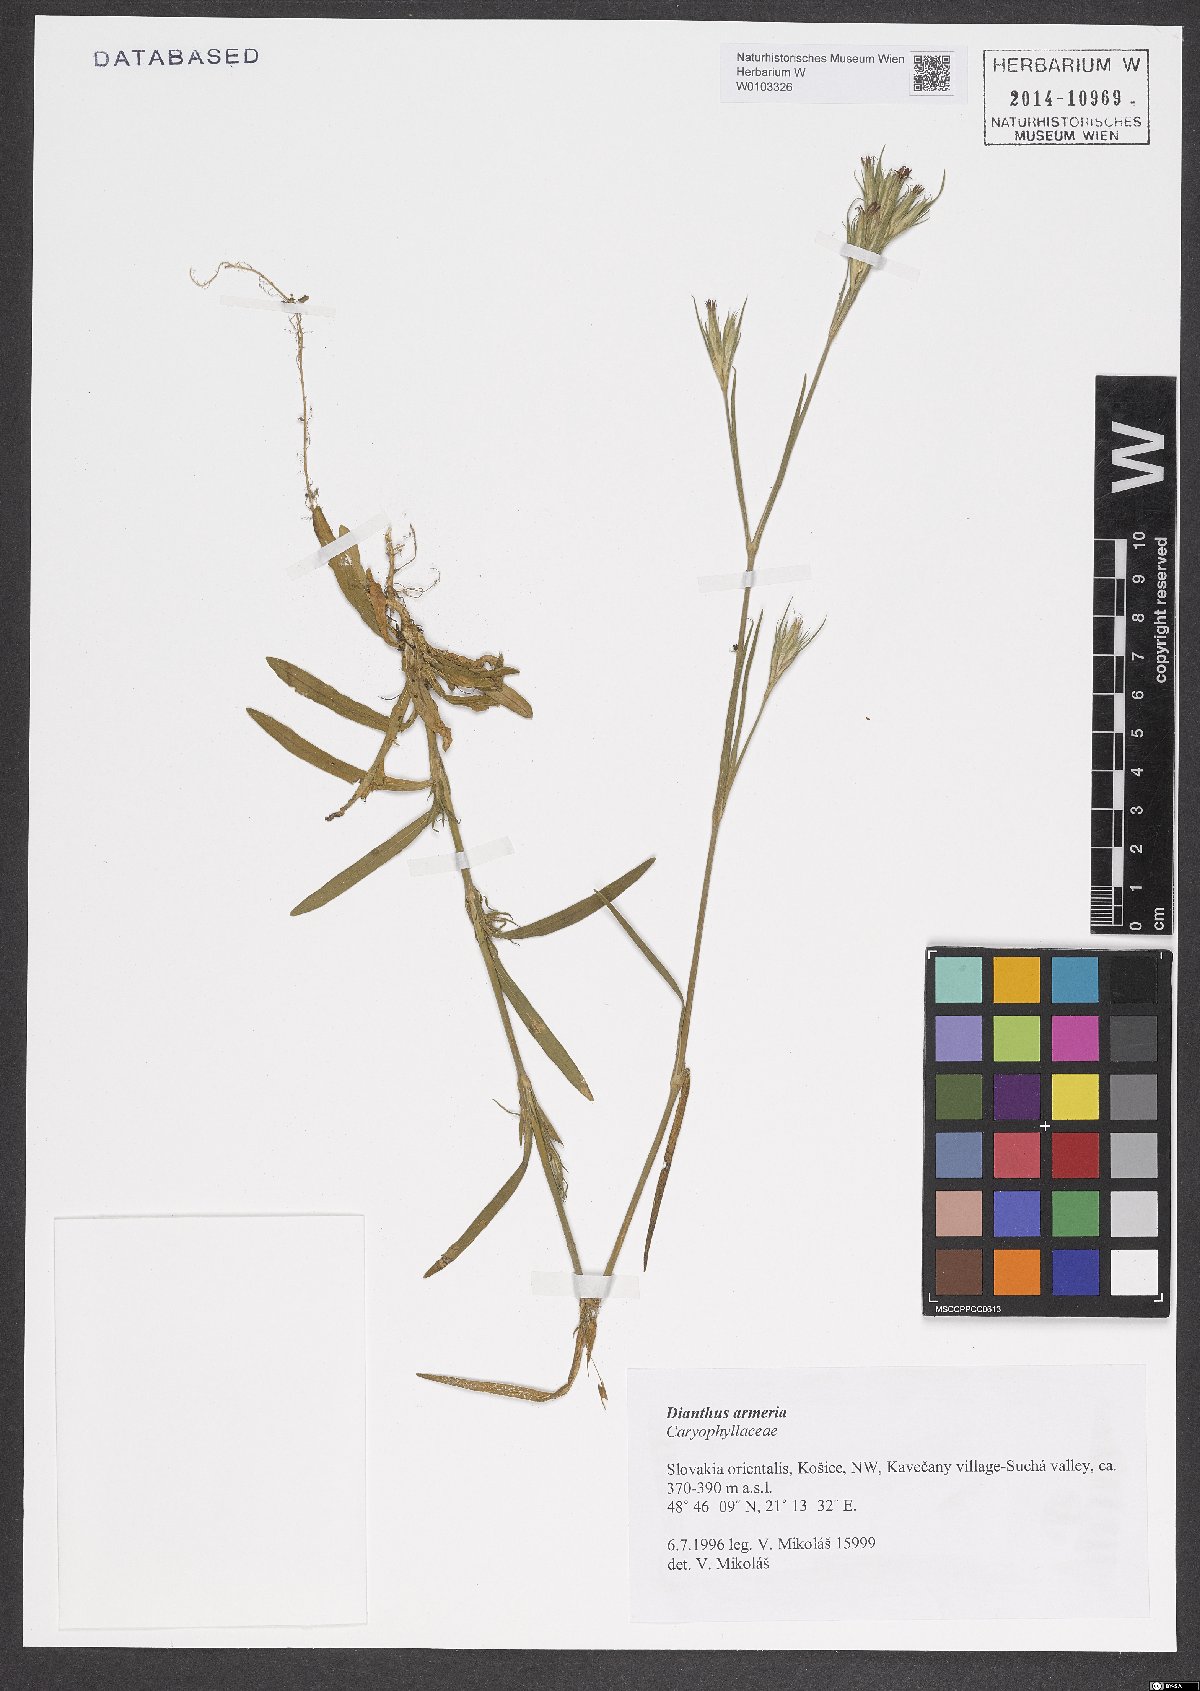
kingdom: Plantae
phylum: Tracheophyta
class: Magnoliopsida
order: Caryophyllales
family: Caryophyllaceae
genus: Dianthus
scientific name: Dianthus armeria
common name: Deptford pink
